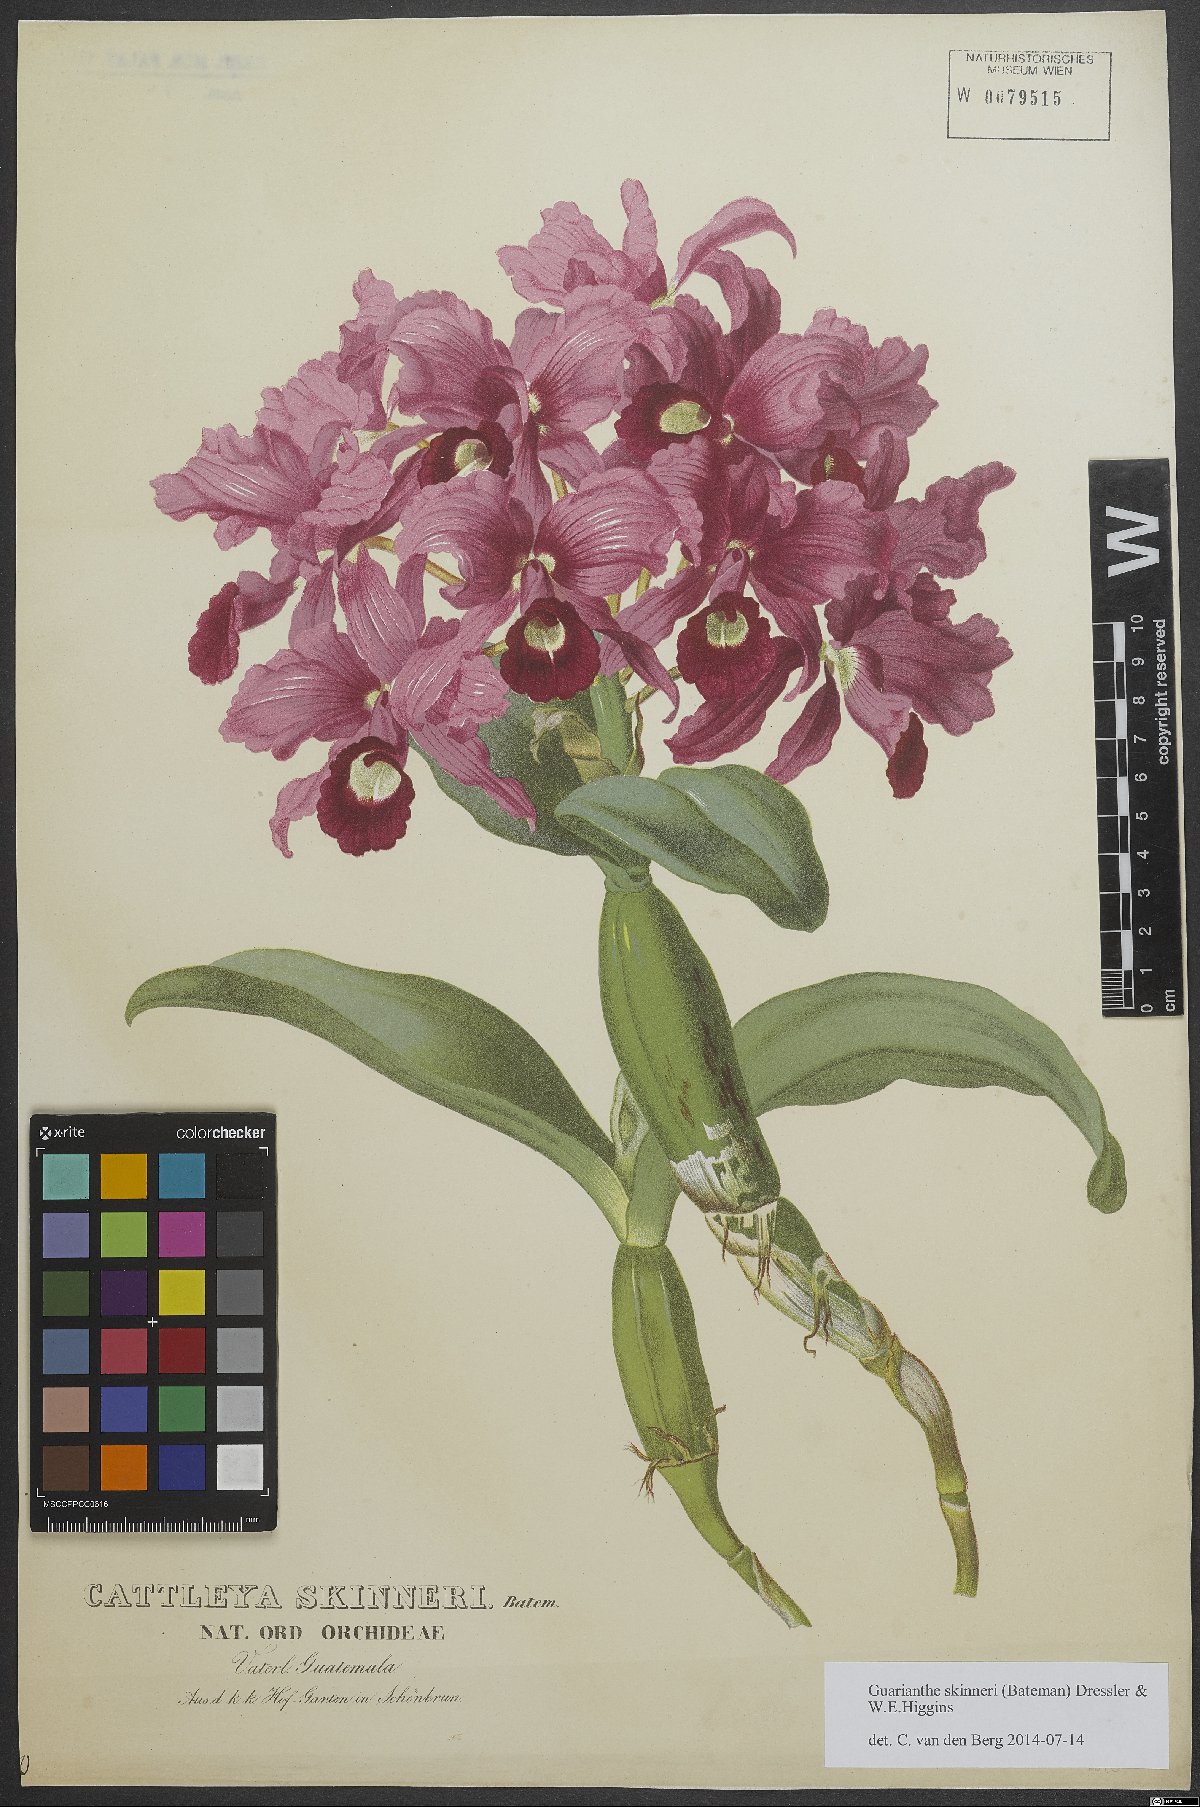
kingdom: Plantae
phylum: Tracheophyta
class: Liliopsida
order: Asparagales
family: Orchidaceae
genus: Guarianthe
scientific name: Guarianthe skinneri
